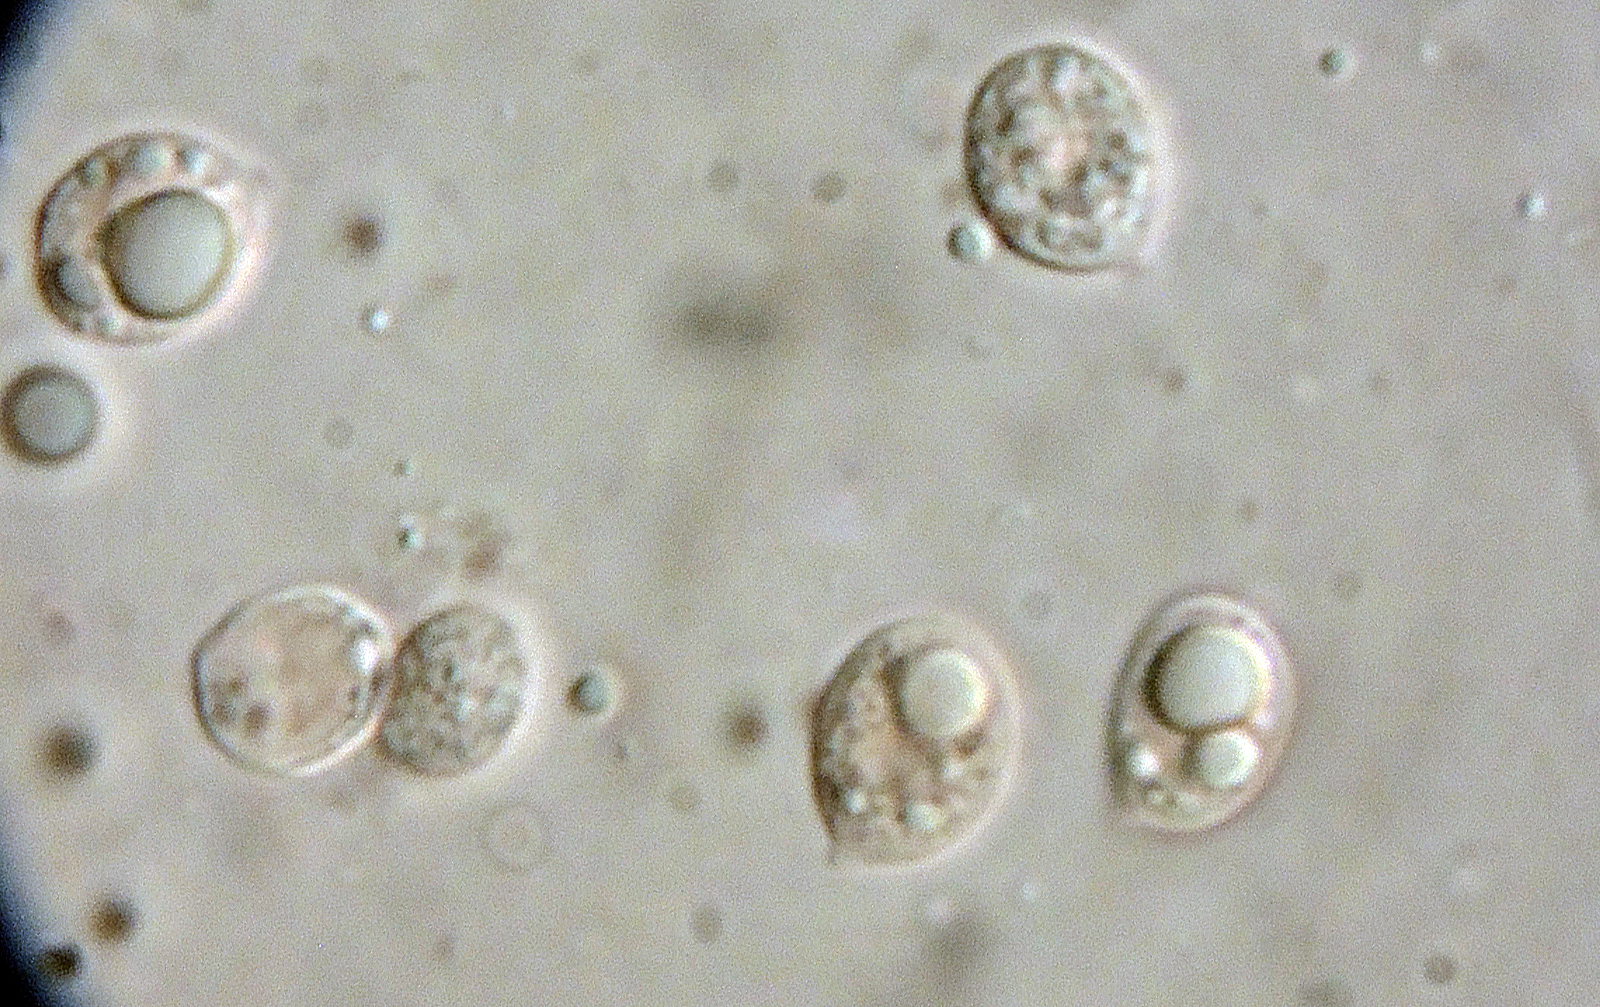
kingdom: Fungi
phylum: Basidiomycota
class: Agaricomycetes
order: Agaricales
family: Mycenaceae
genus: Mycena
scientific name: Mycena supina
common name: olivenbrun bark-huesvamp
